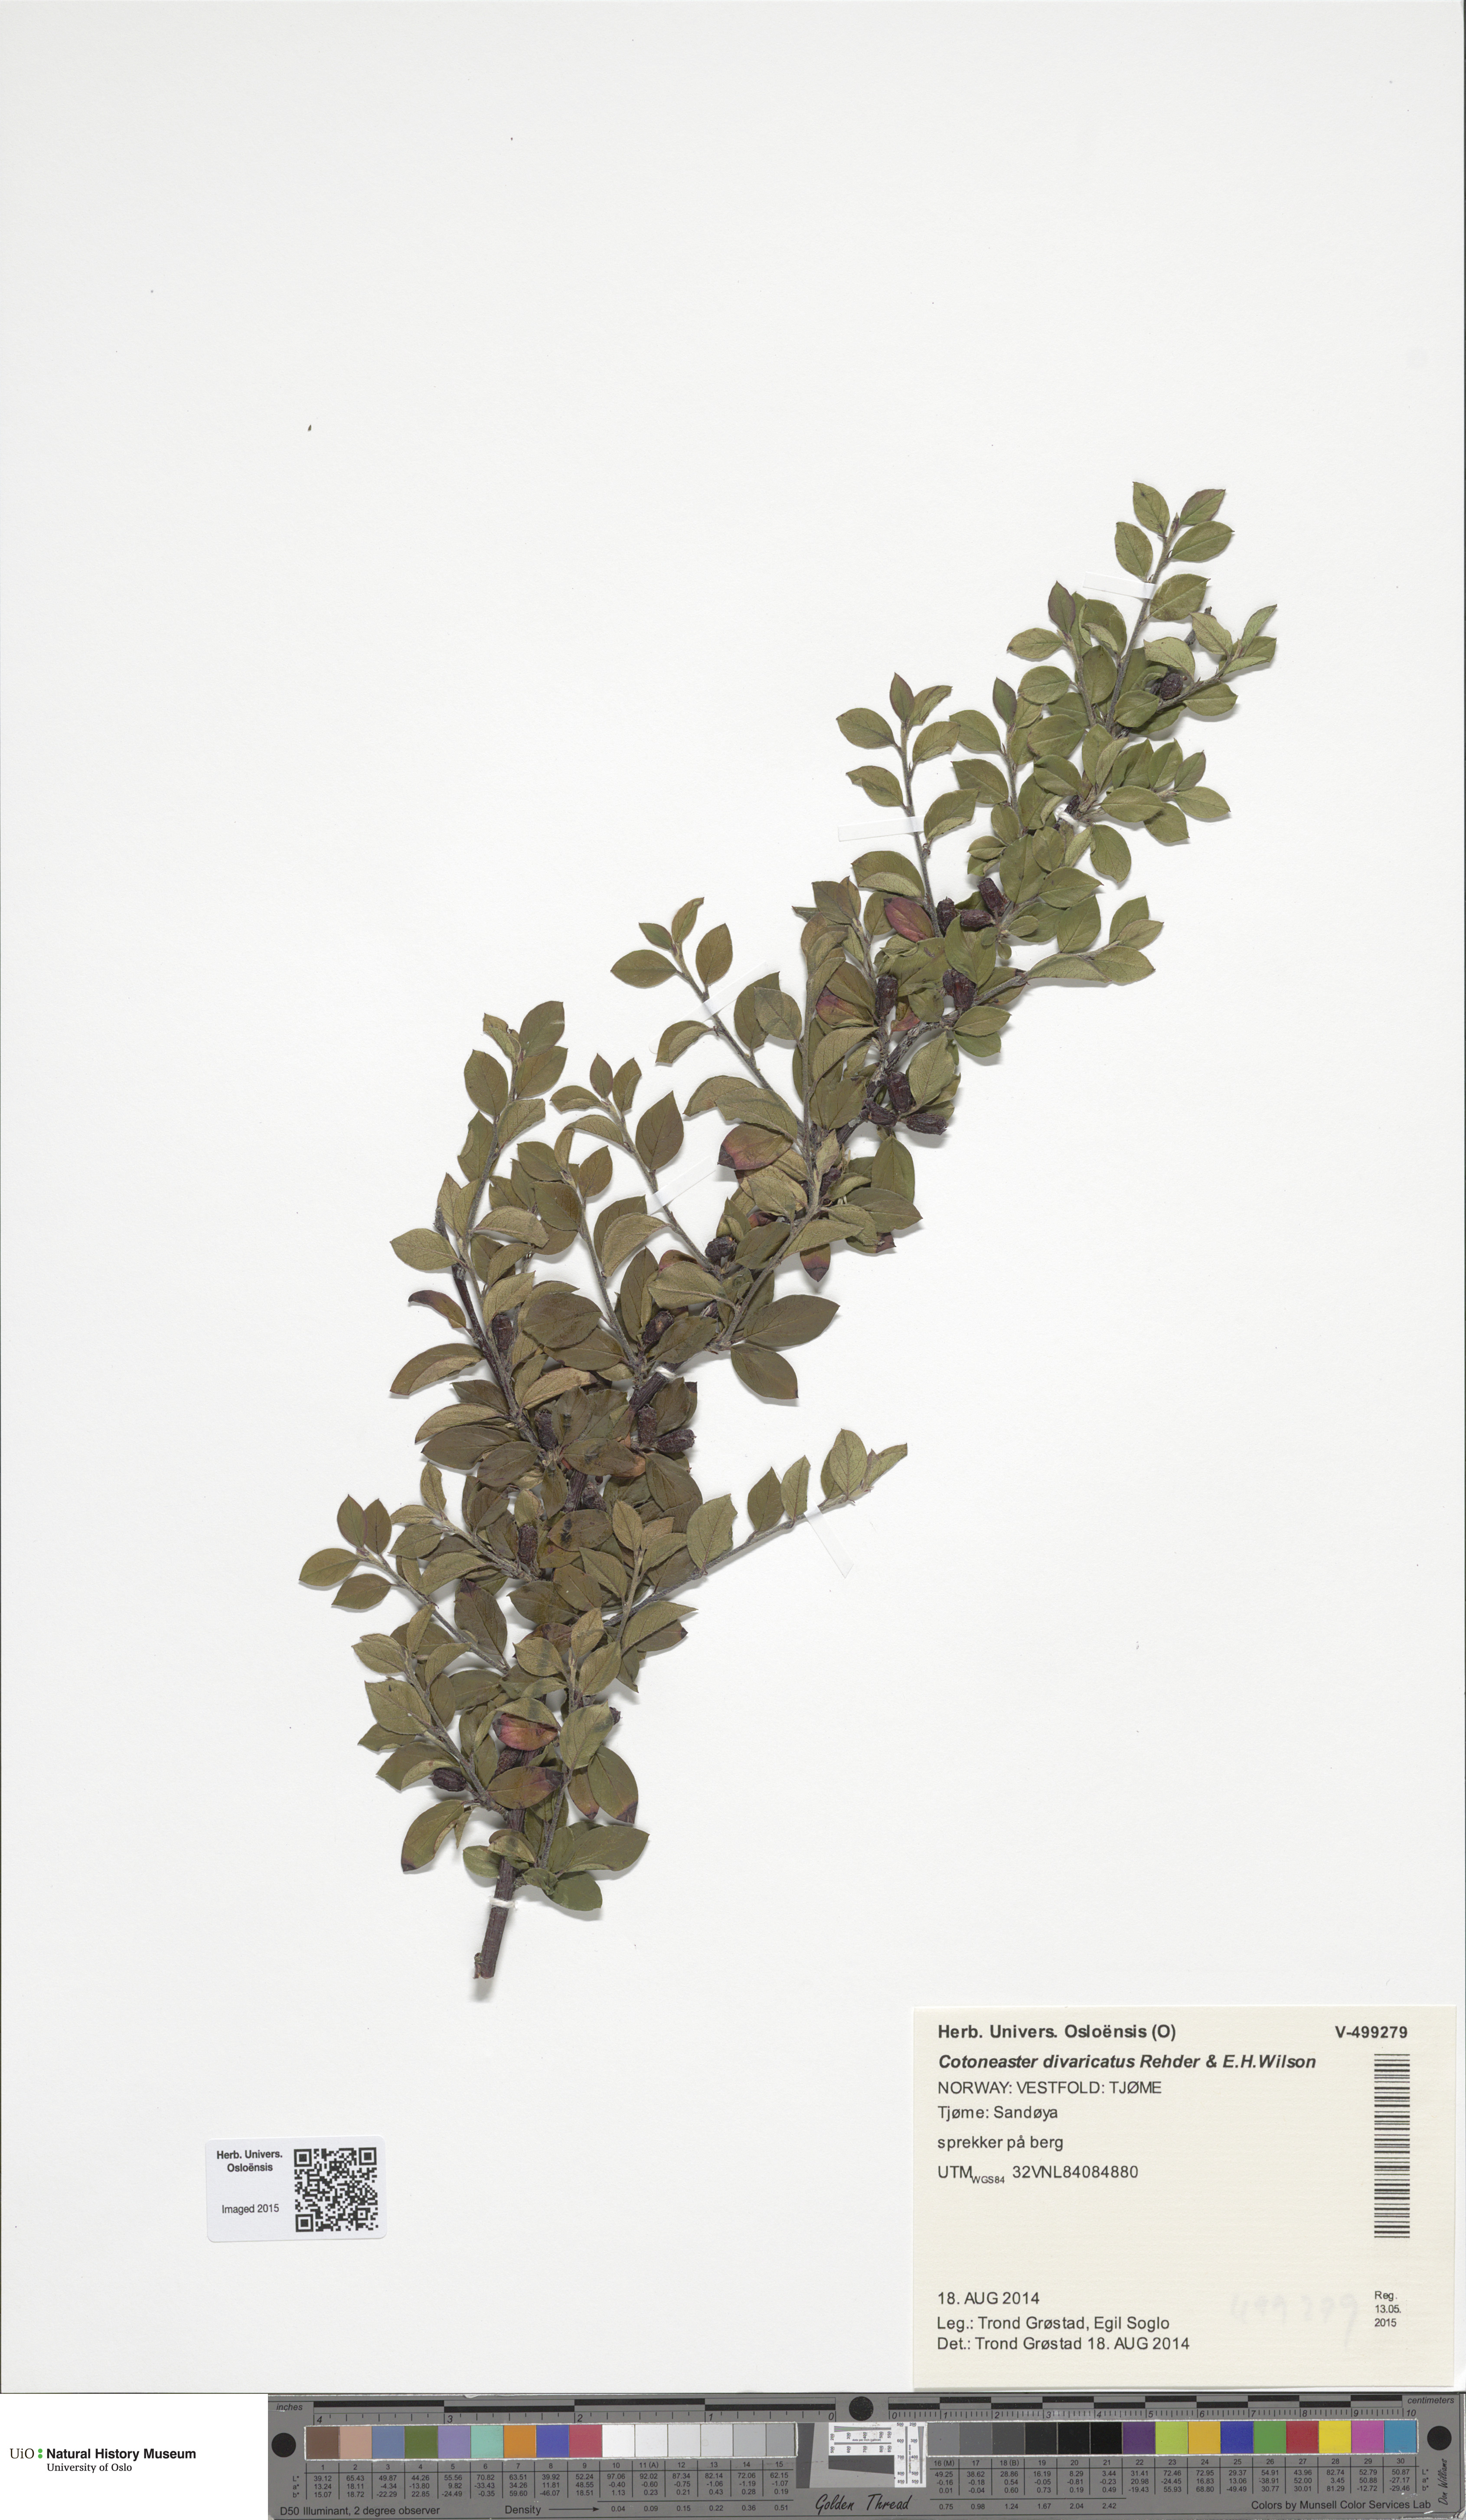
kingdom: Plantae
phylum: Tracheophyta
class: Magnoliopsida
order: Rosales
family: Rosaceae
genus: Cotoneaster
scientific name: Cotoneaster divaricatus
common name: Spreading cotoneaster
